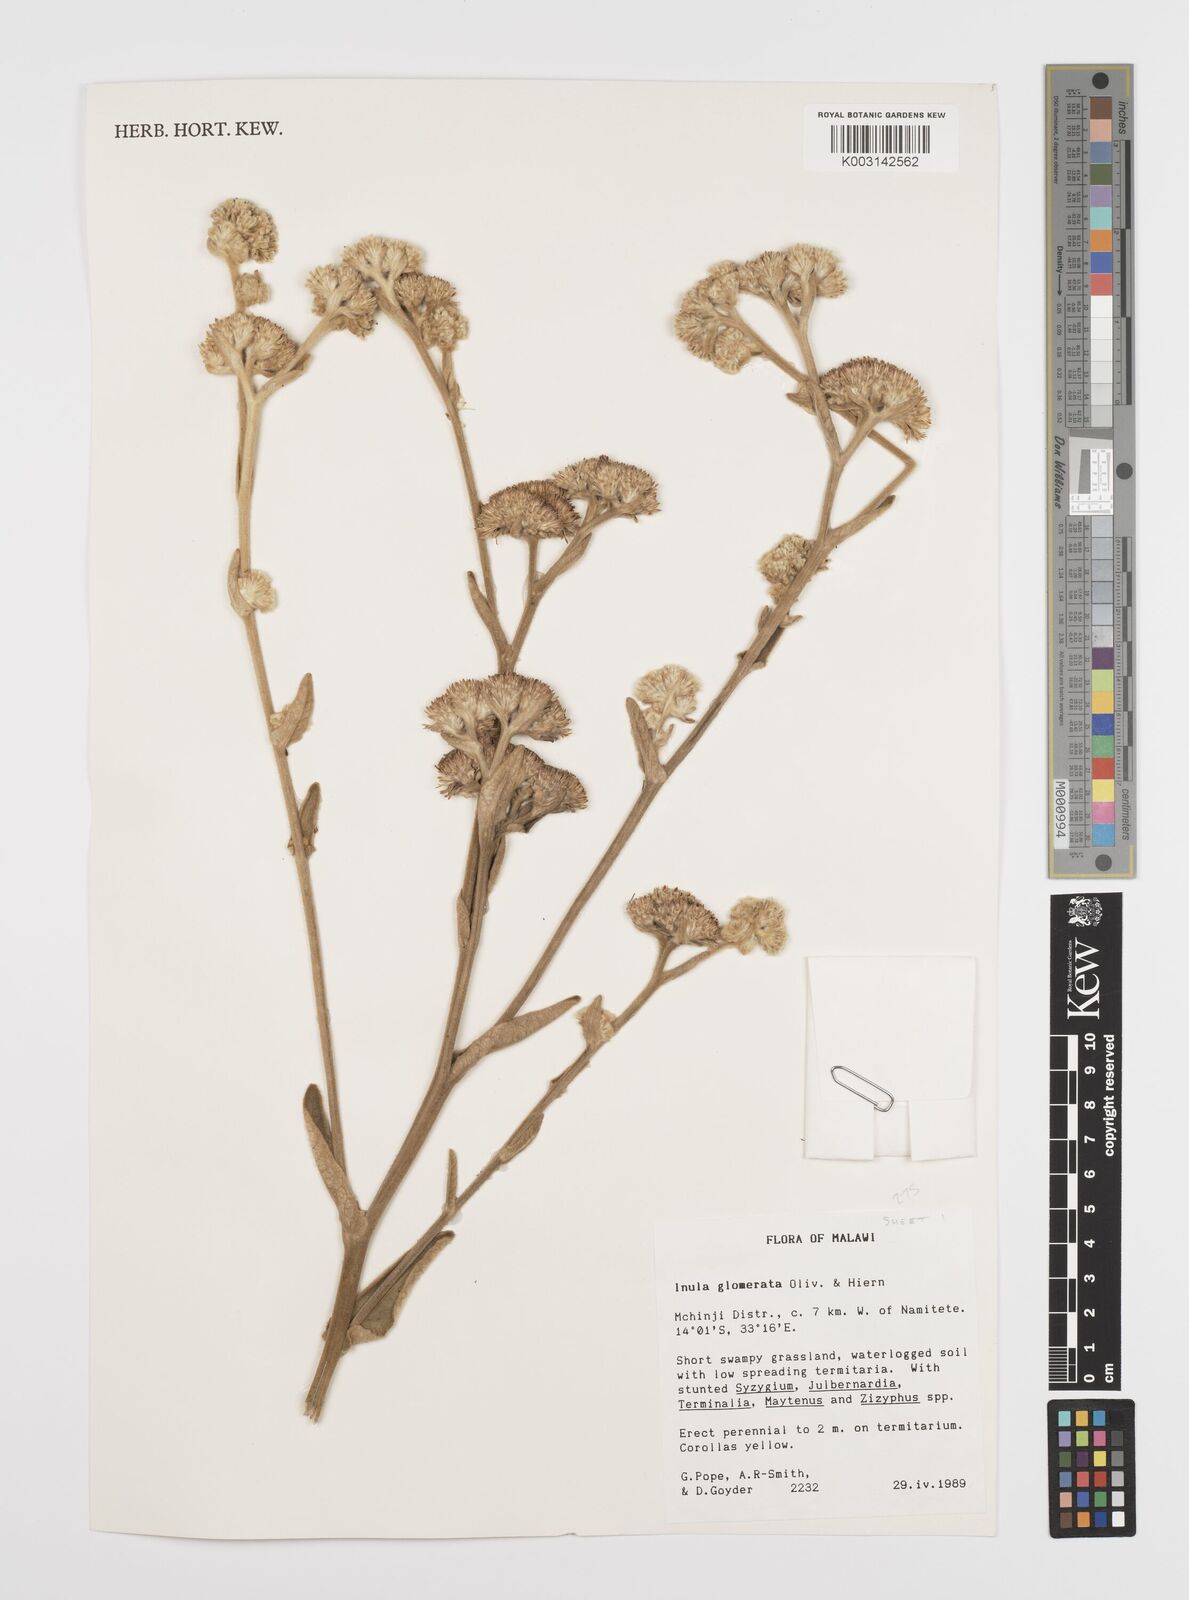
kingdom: Plantae
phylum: Tracheophyta
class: Magnoliopsida
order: Asterales
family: Asteraceae
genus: Inula
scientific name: Inula glomerata
